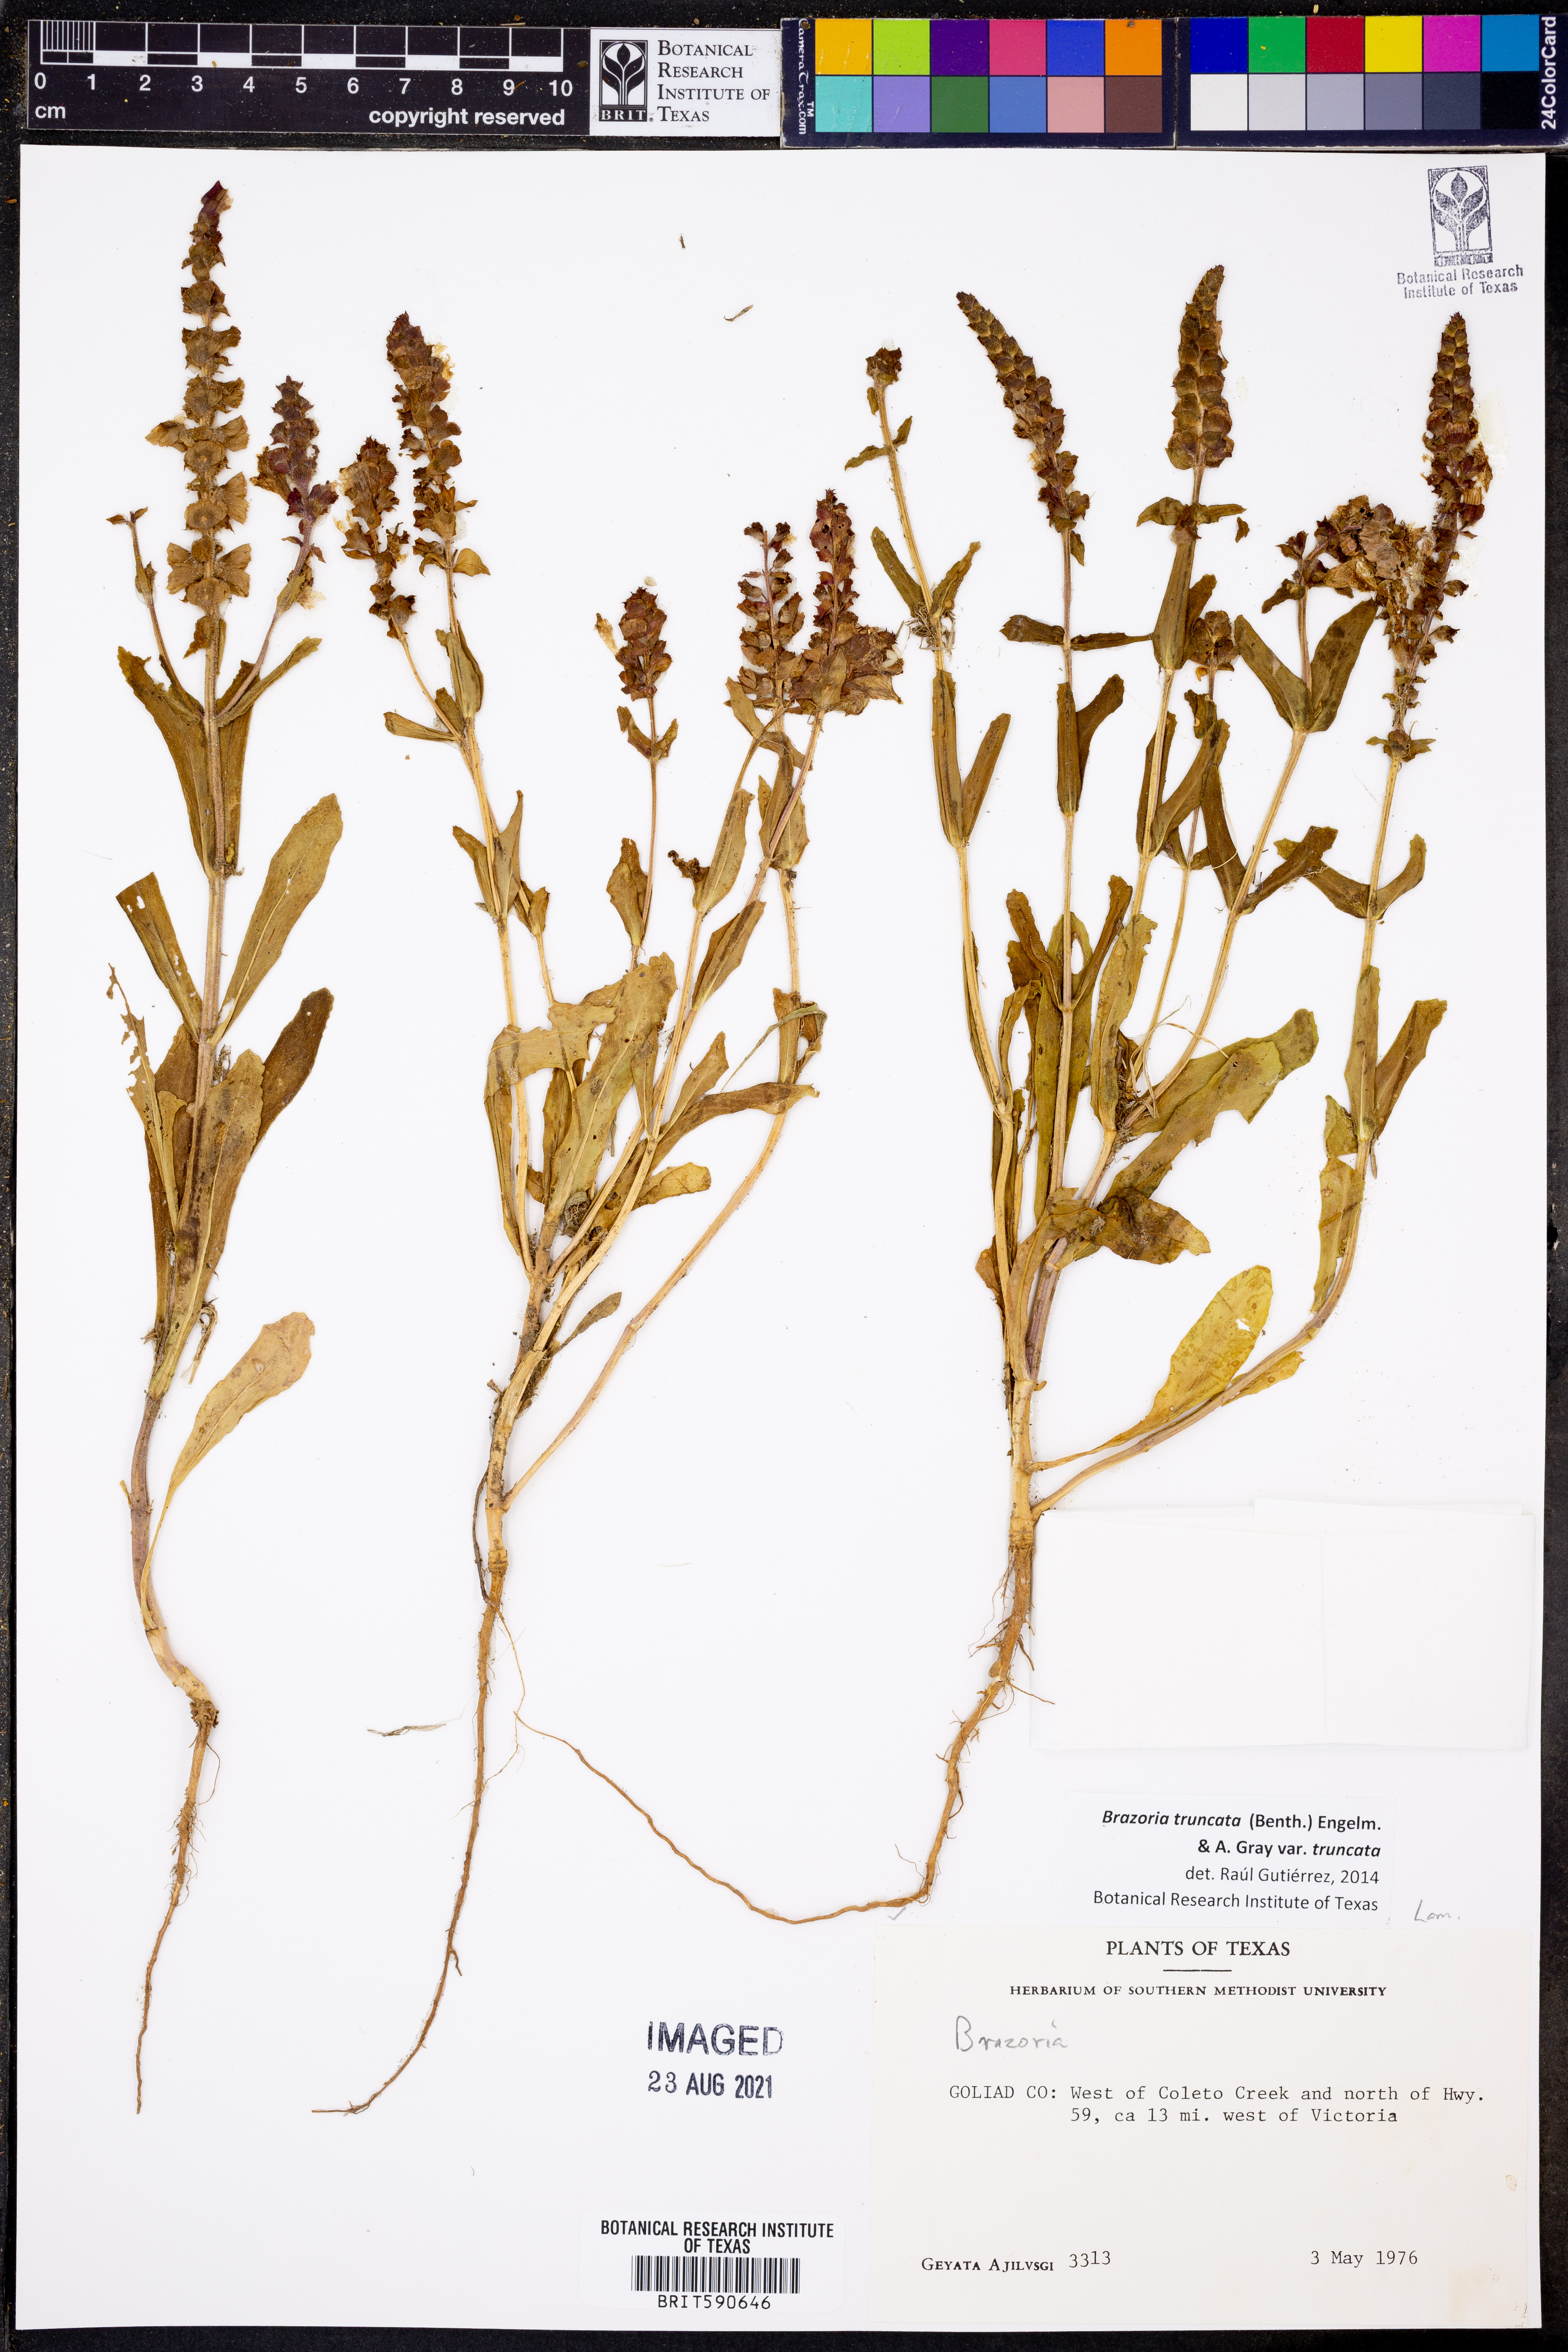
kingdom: Plantae
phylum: Tracheophyta
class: Magnoliopsida
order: Lamiales
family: Lamiaceae
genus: Brazoria
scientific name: Brazoria truncata
